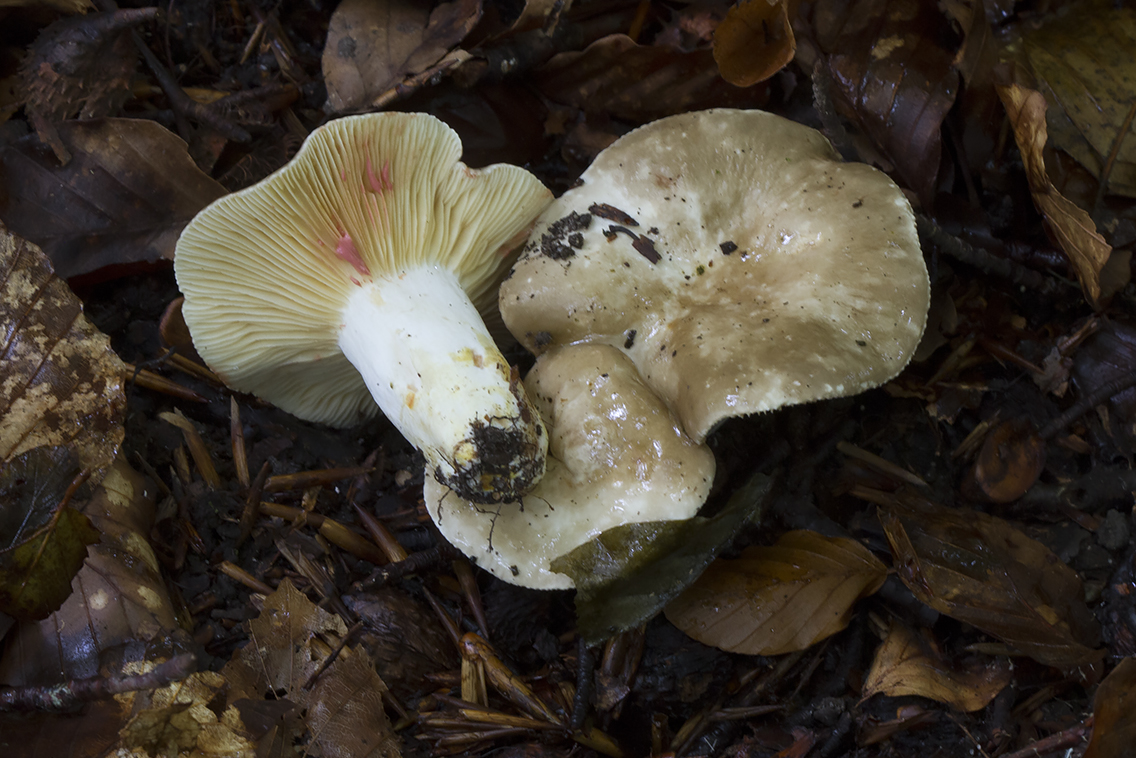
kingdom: Fungi
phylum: Basidiomycota
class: Agaricomycetes
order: Russulales
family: Russulaceae
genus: Lactarius
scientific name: Lactarius acris
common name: rosamælket mælkehat
